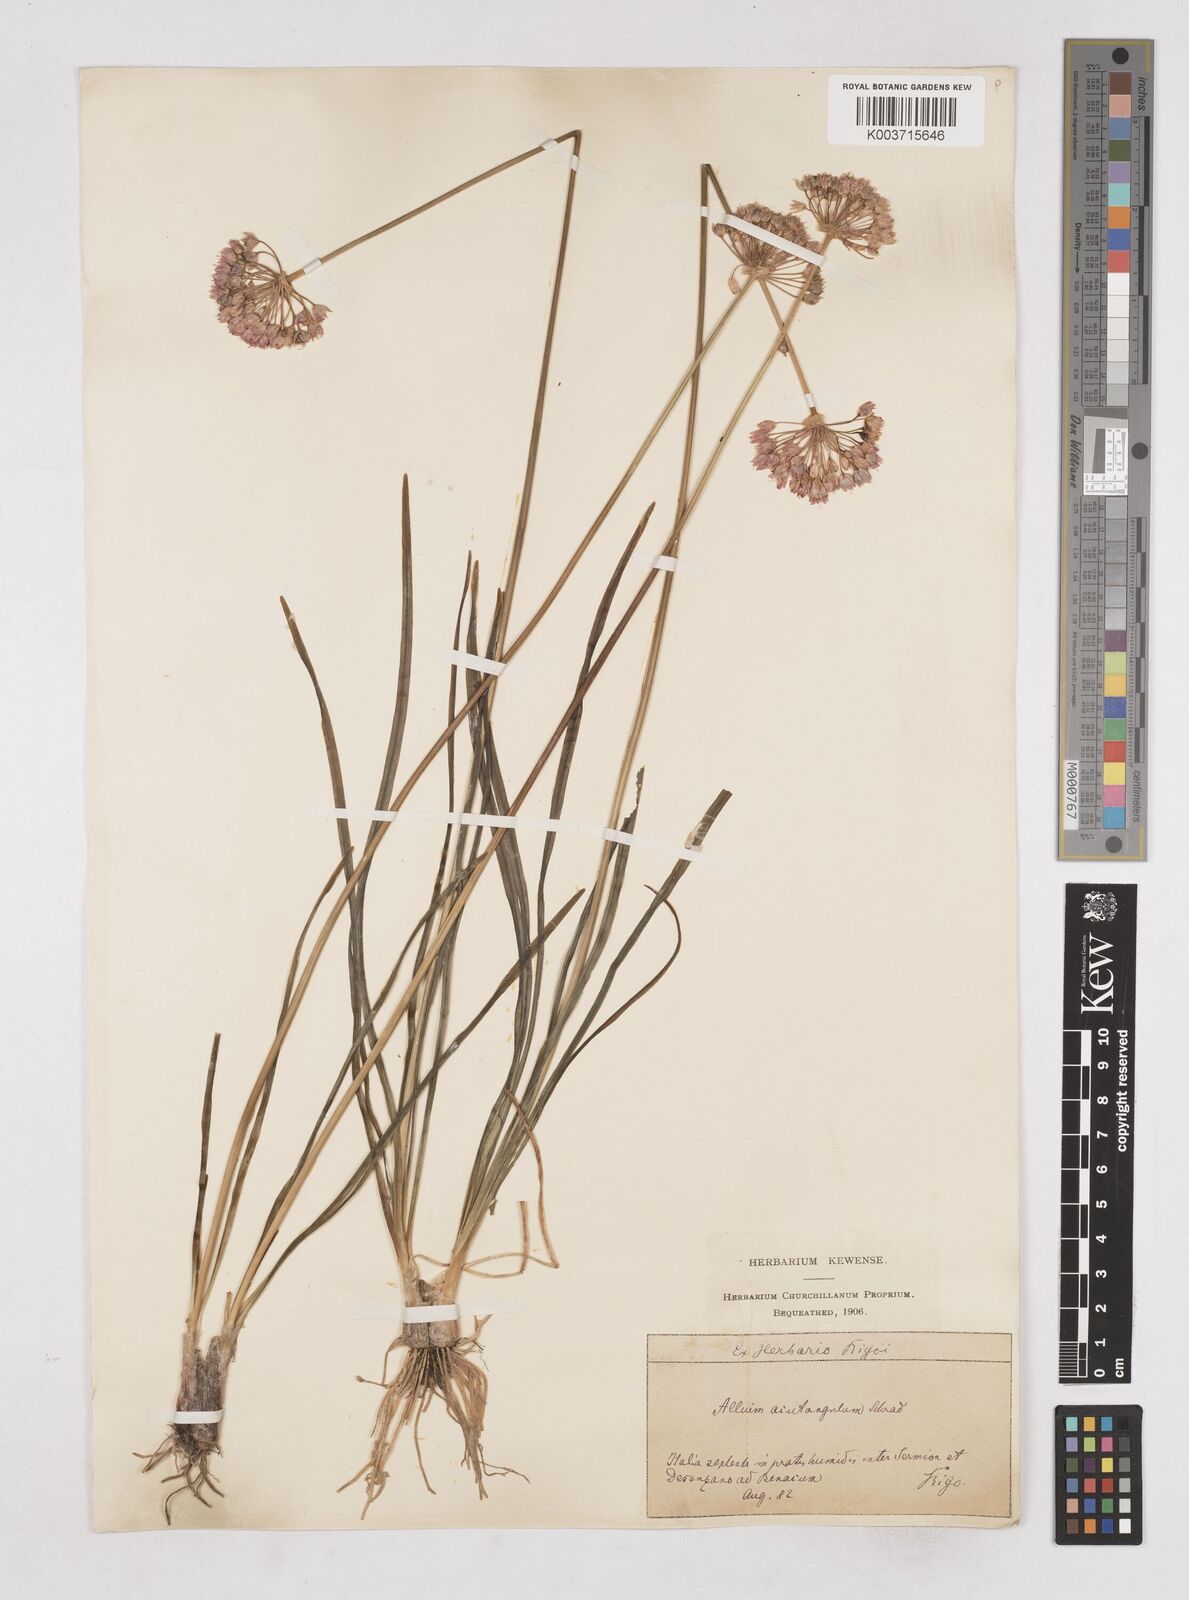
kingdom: Plantae
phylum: Tracheophyta
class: Liliopsida
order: Asparagales
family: Amaryllidaceae
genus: Allium
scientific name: Allium angulosum
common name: Mouse garlic
